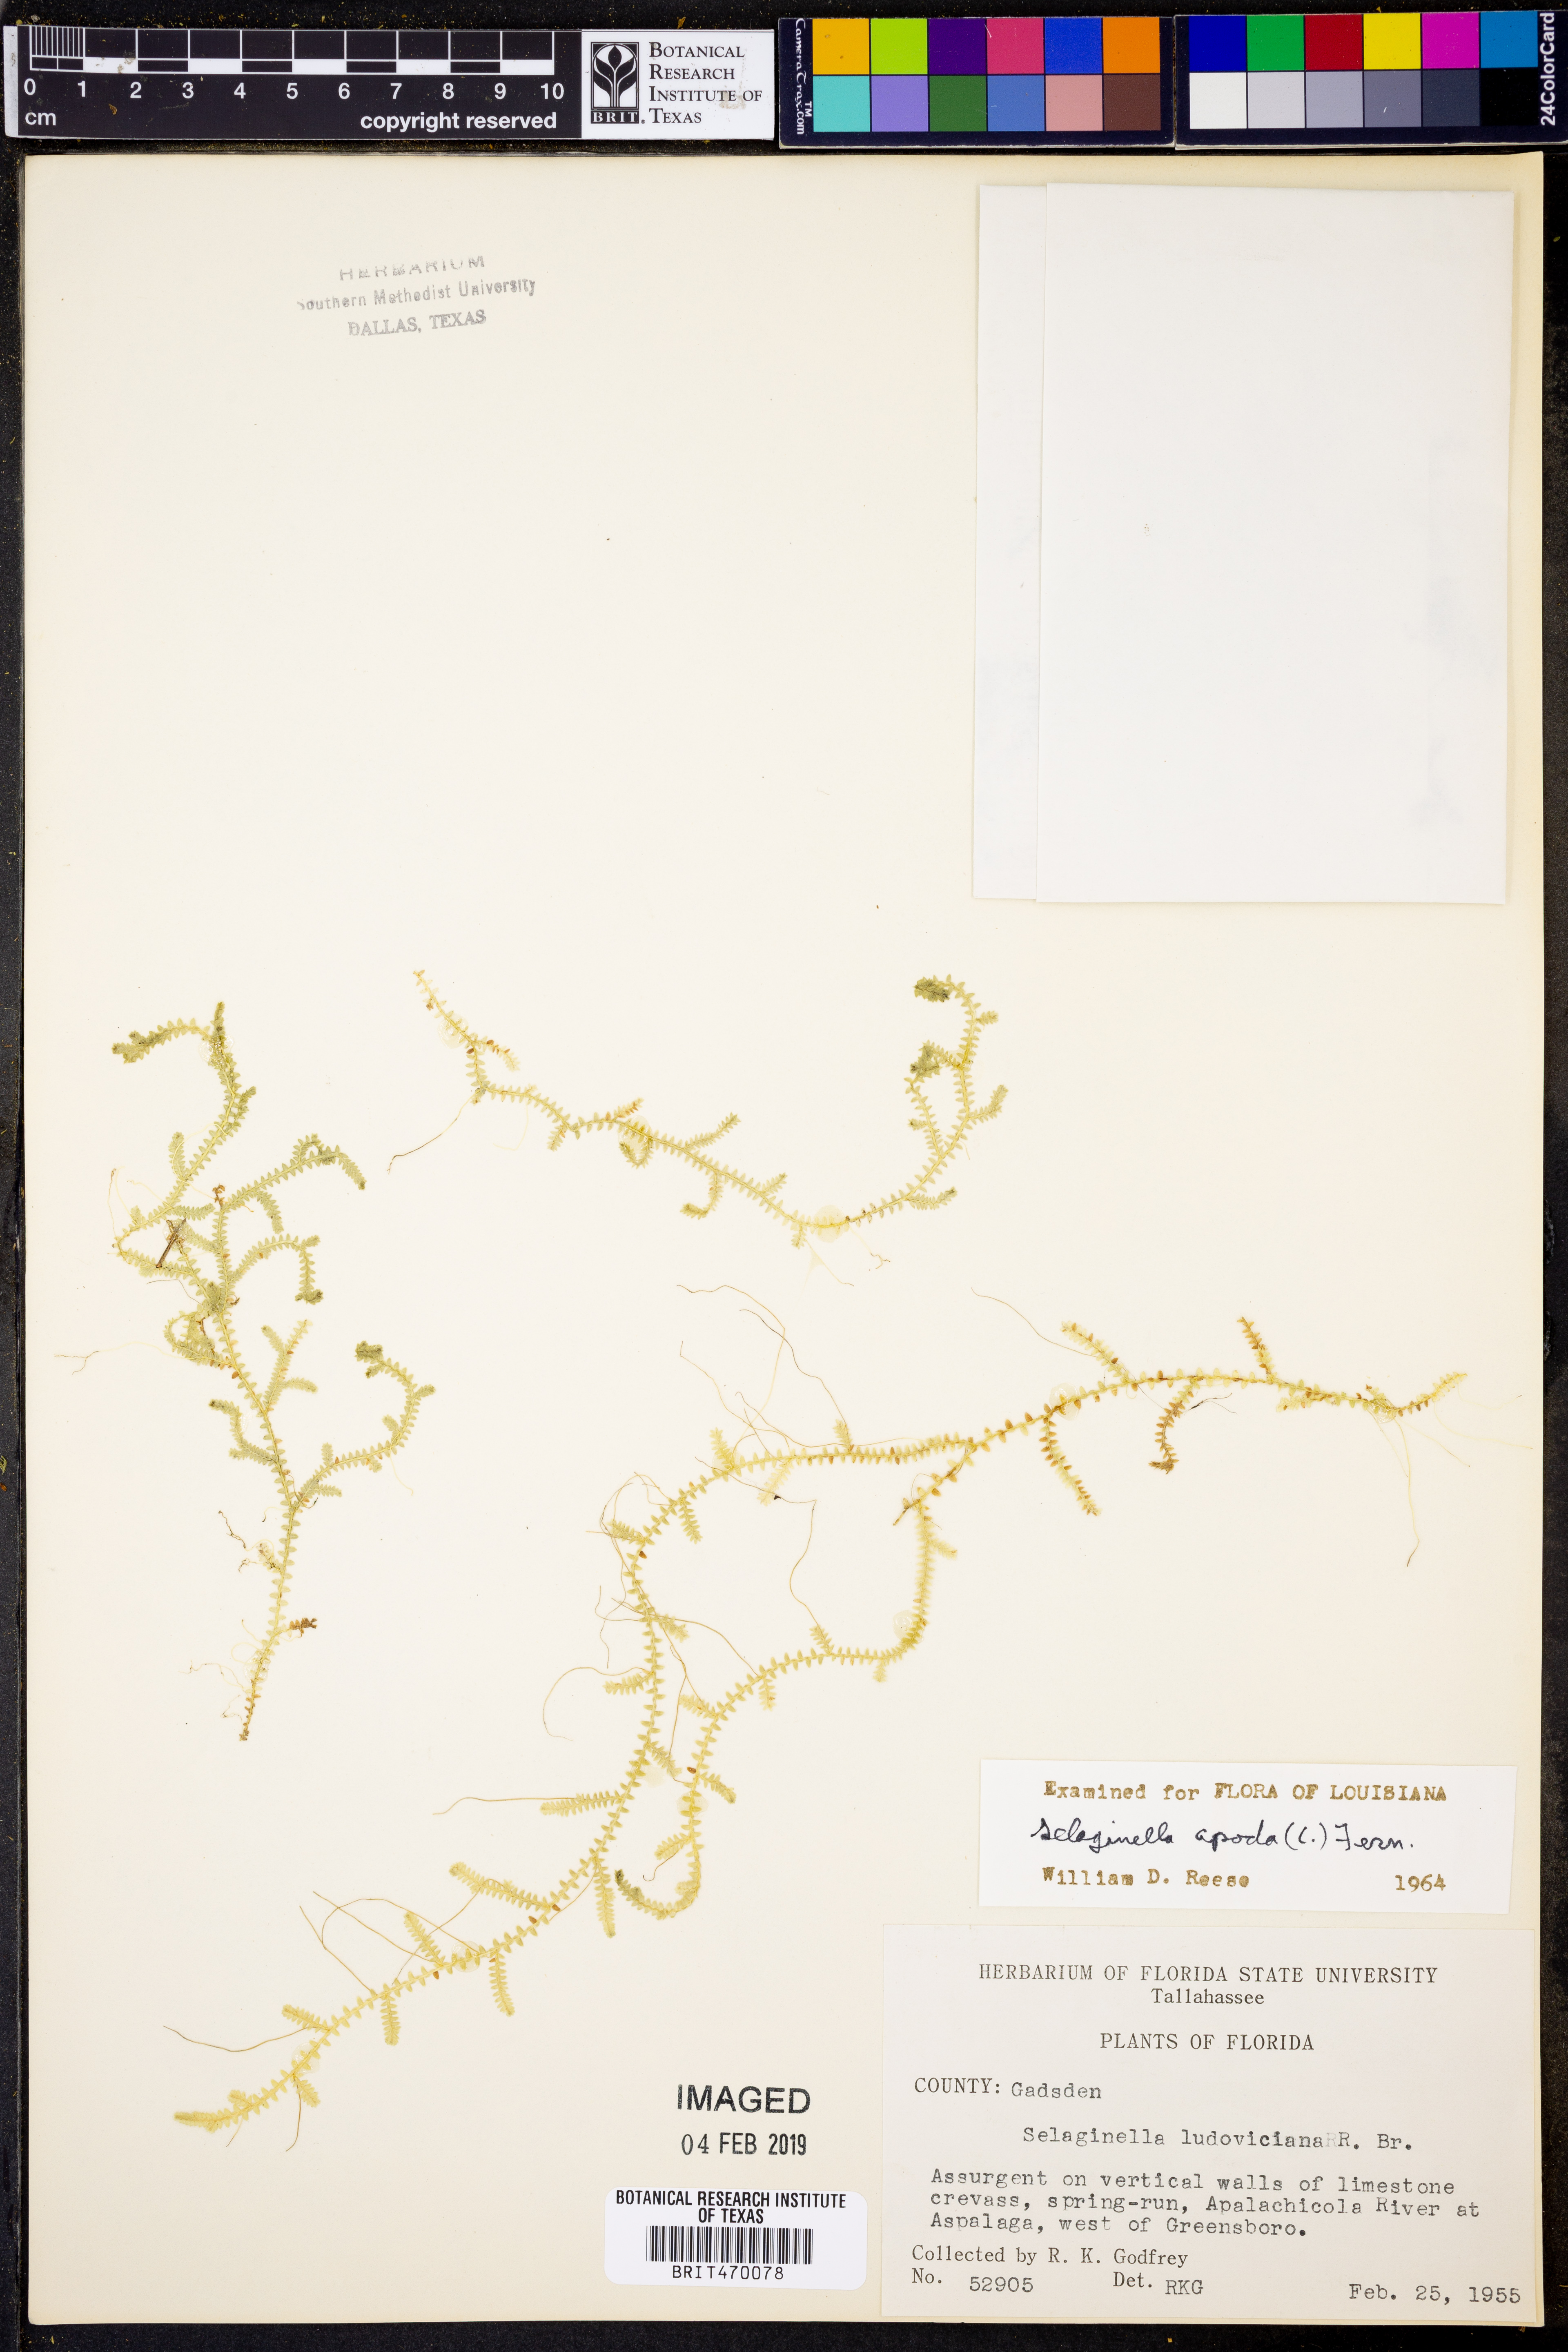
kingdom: Plantae
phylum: Tracheophyta
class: Lycopodiopsida
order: Selaginellales
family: Selaginellaceae
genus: Selaginella
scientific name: Selaginella apoda
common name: Creeping spikemoss
